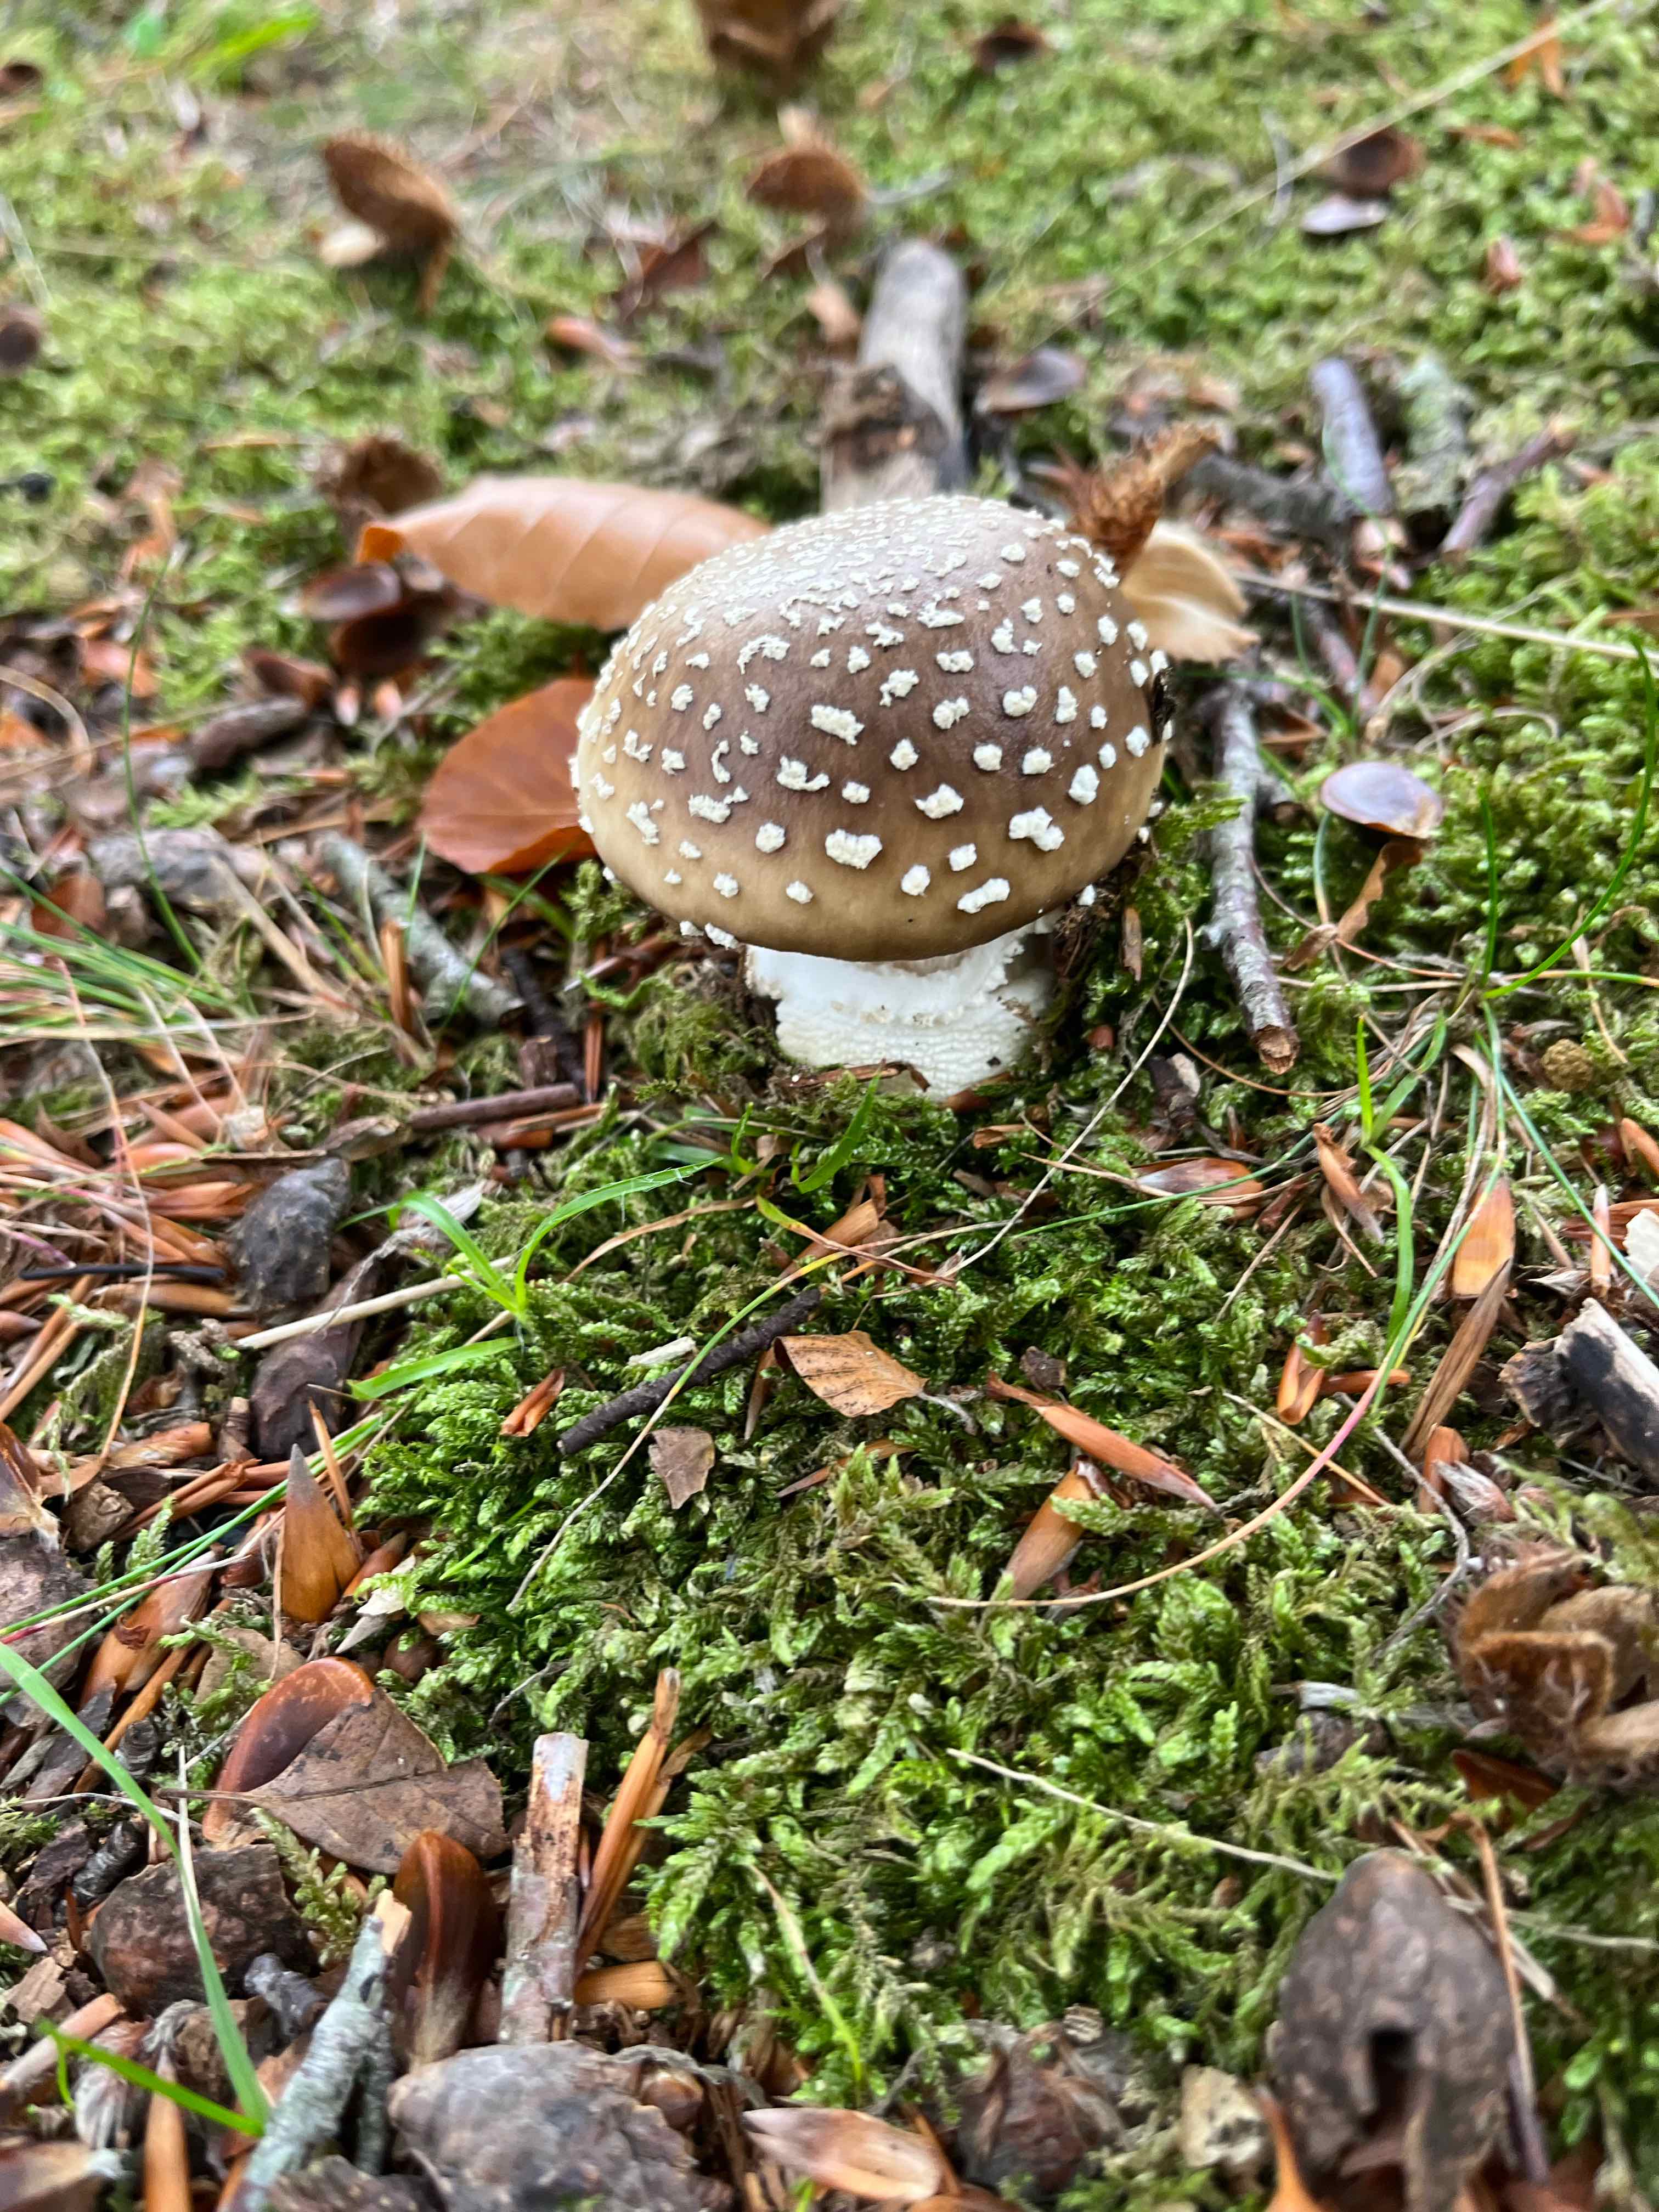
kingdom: Fungi
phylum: Basidiomycota
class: Agaricomycetes
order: Agaricales
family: Amanitaceae
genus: Amanita
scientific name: Amanita pantherina
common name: panter-fluesvamp
